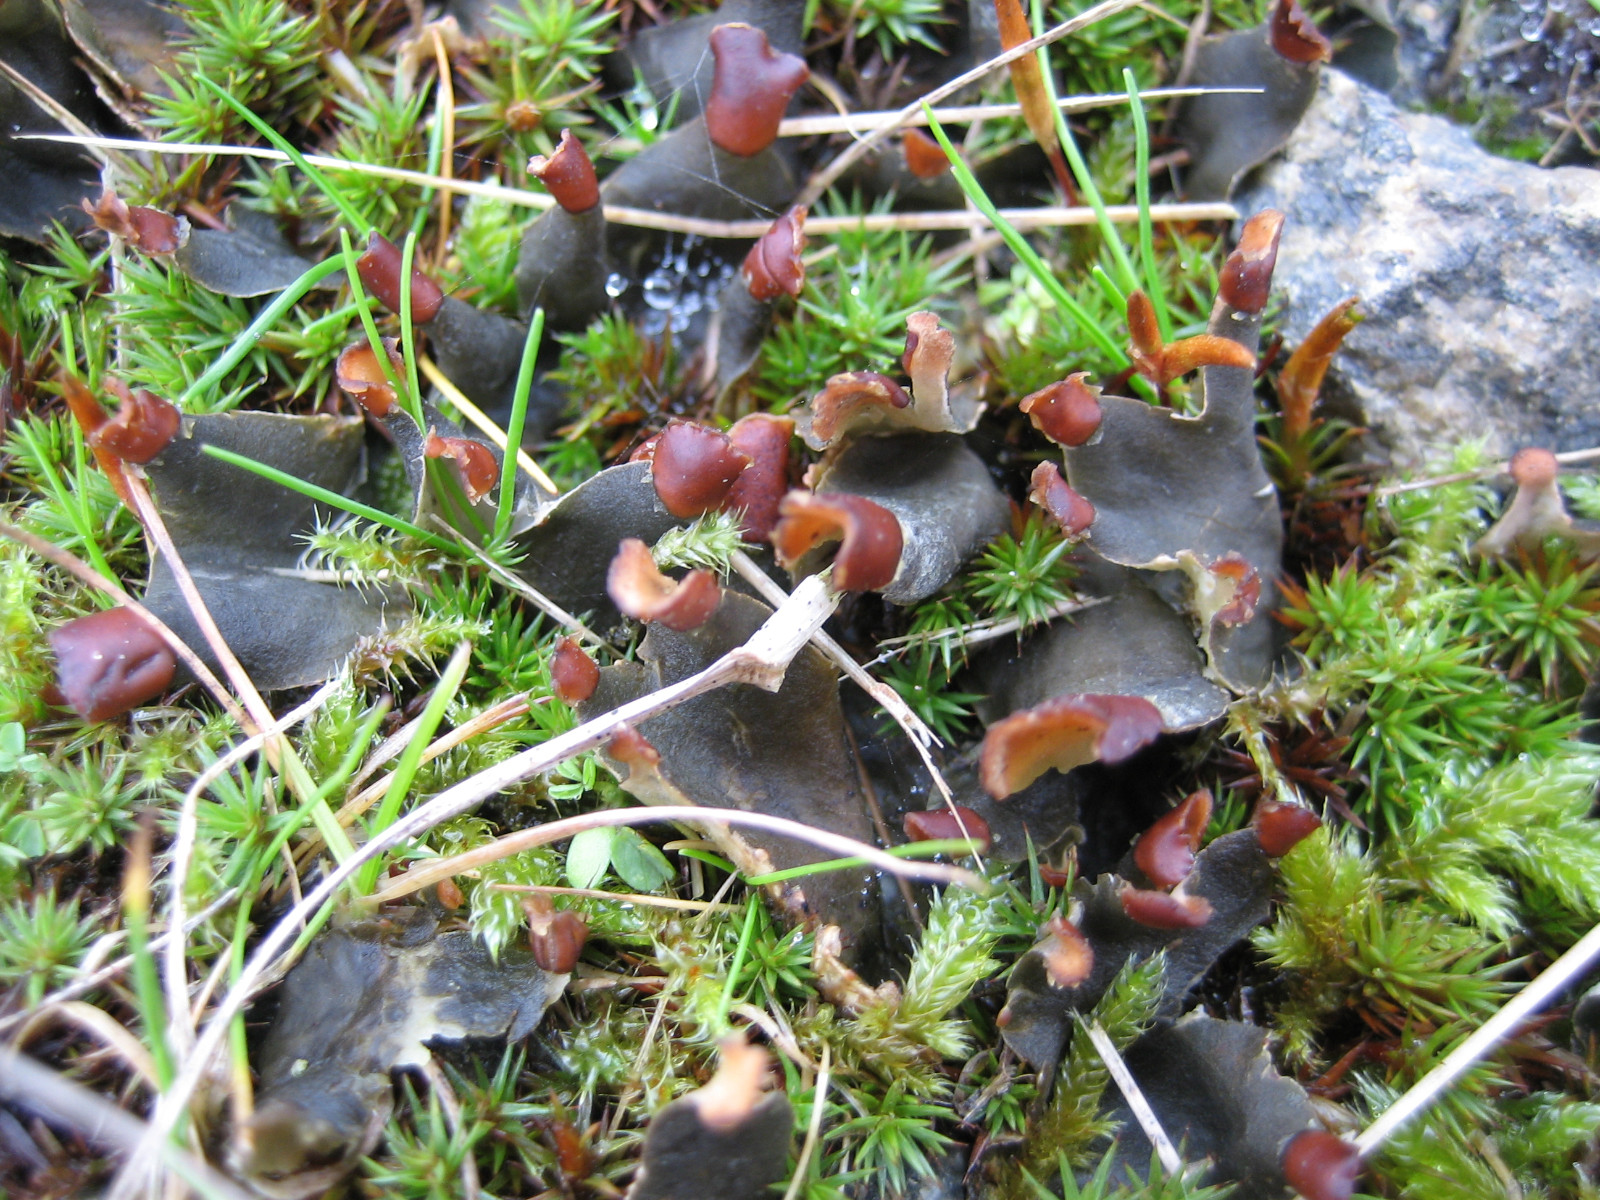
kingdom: Fungi
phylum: Ascomycota
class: Lecanoromycetes
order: Peltigerales
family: Peltigeraceae
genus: Peltigera
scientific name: Peltigera didactyla
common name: liden skjoldlav
